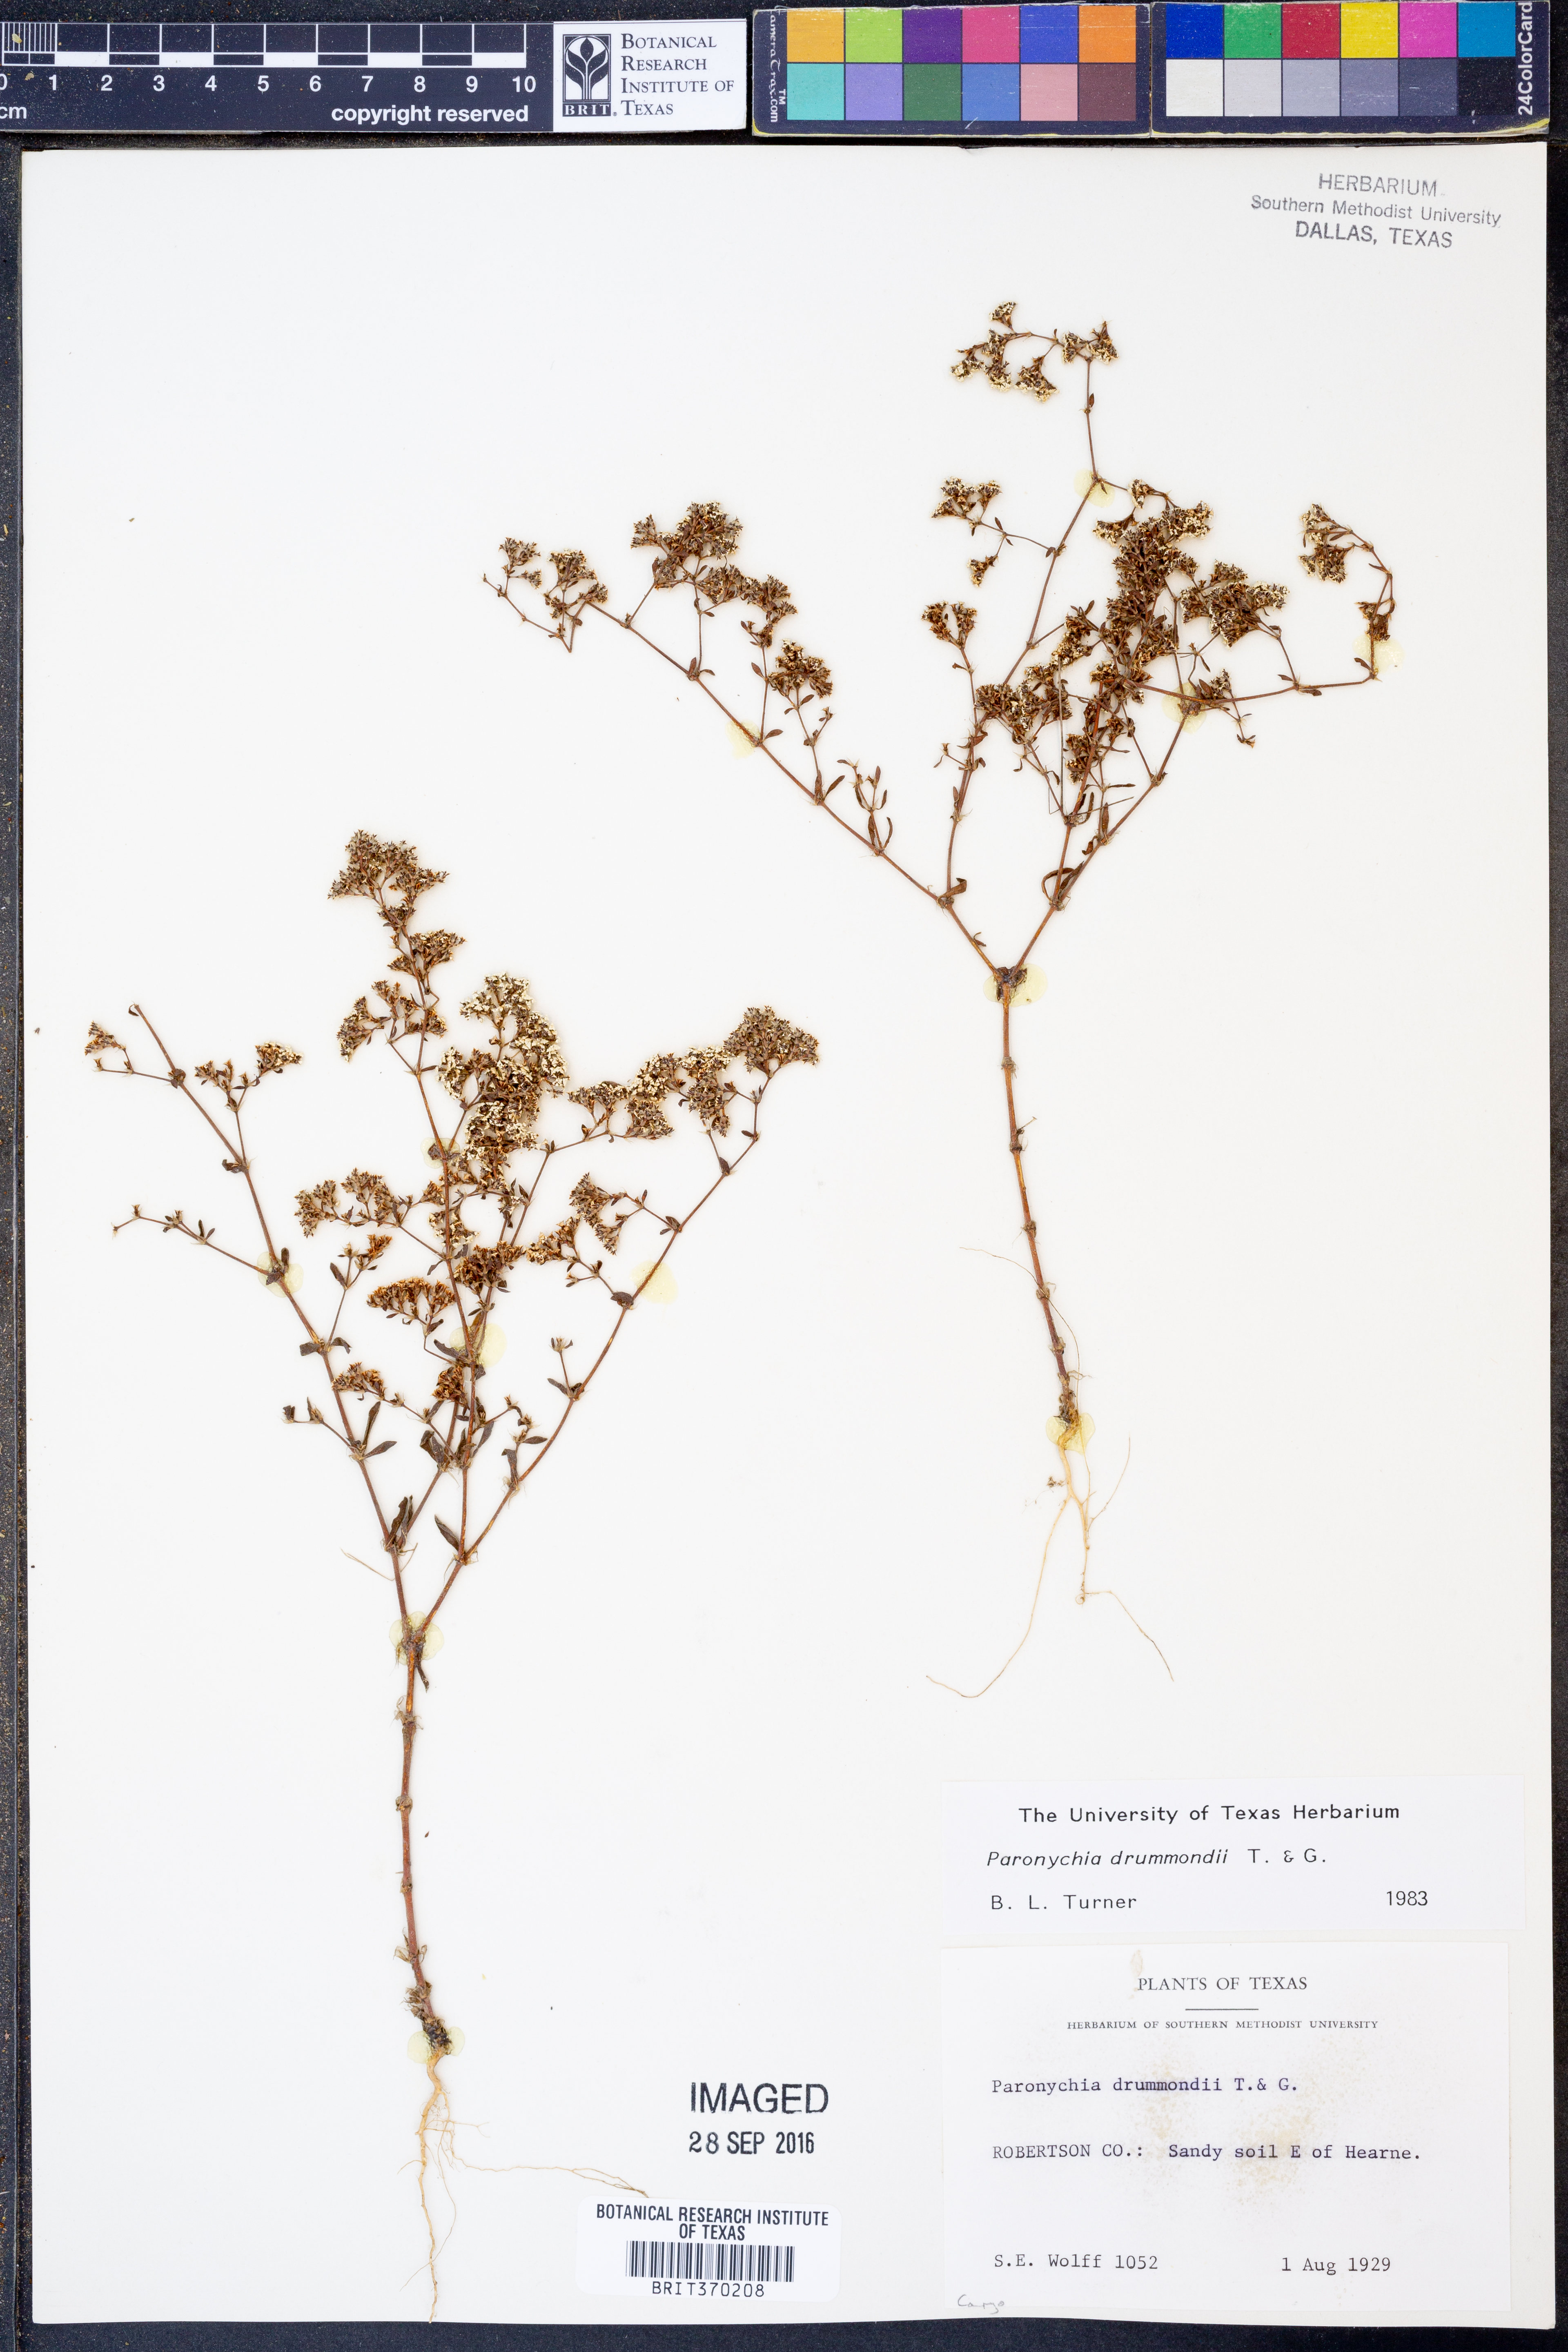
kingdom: Plantae
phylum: Tracheophyta
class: Magnoliopsida
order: Caryophyllales
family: Caryophyllaceae
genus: Paronychia
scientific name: Paronychia drummondii
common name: Drummond's nailwort
